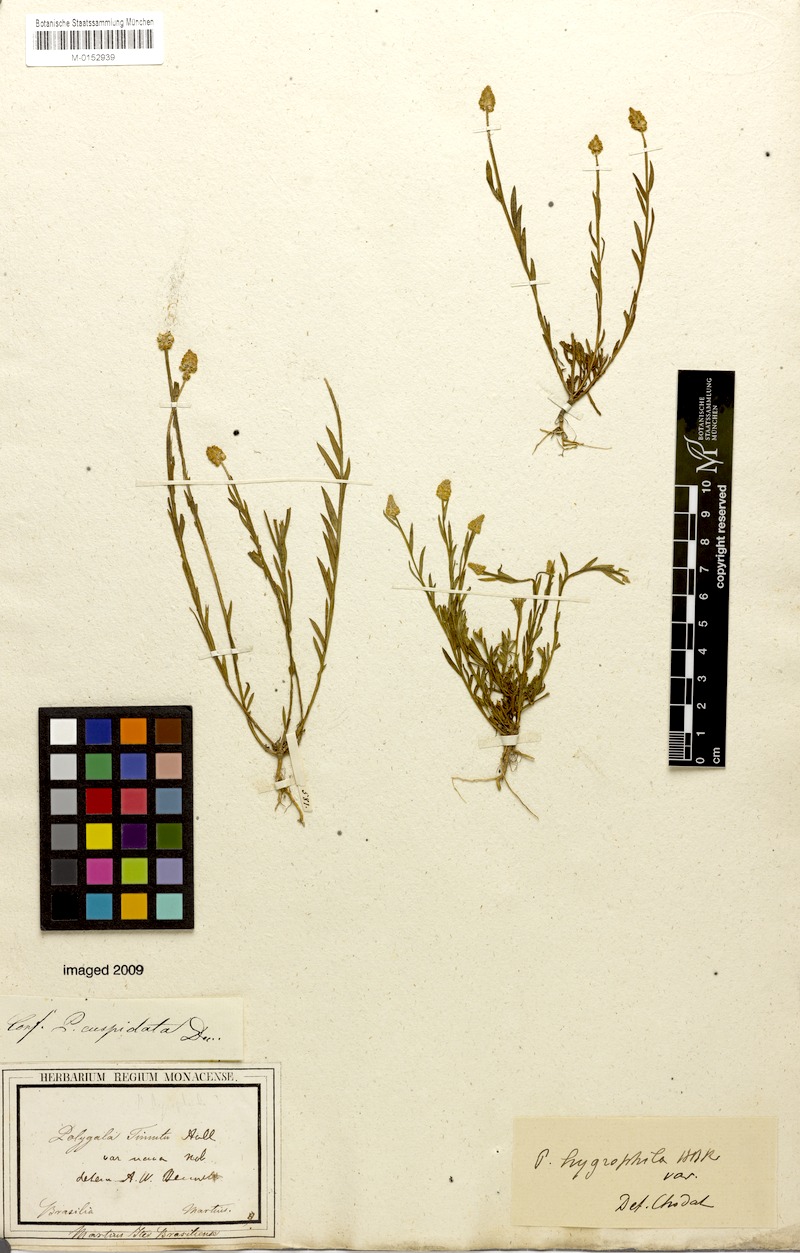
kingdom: Plantae
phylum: Tracheophyta
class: Magnoliopsida
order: Fabales
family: Polygalaceae
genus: Polygala
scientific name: Polygala hygrophila
